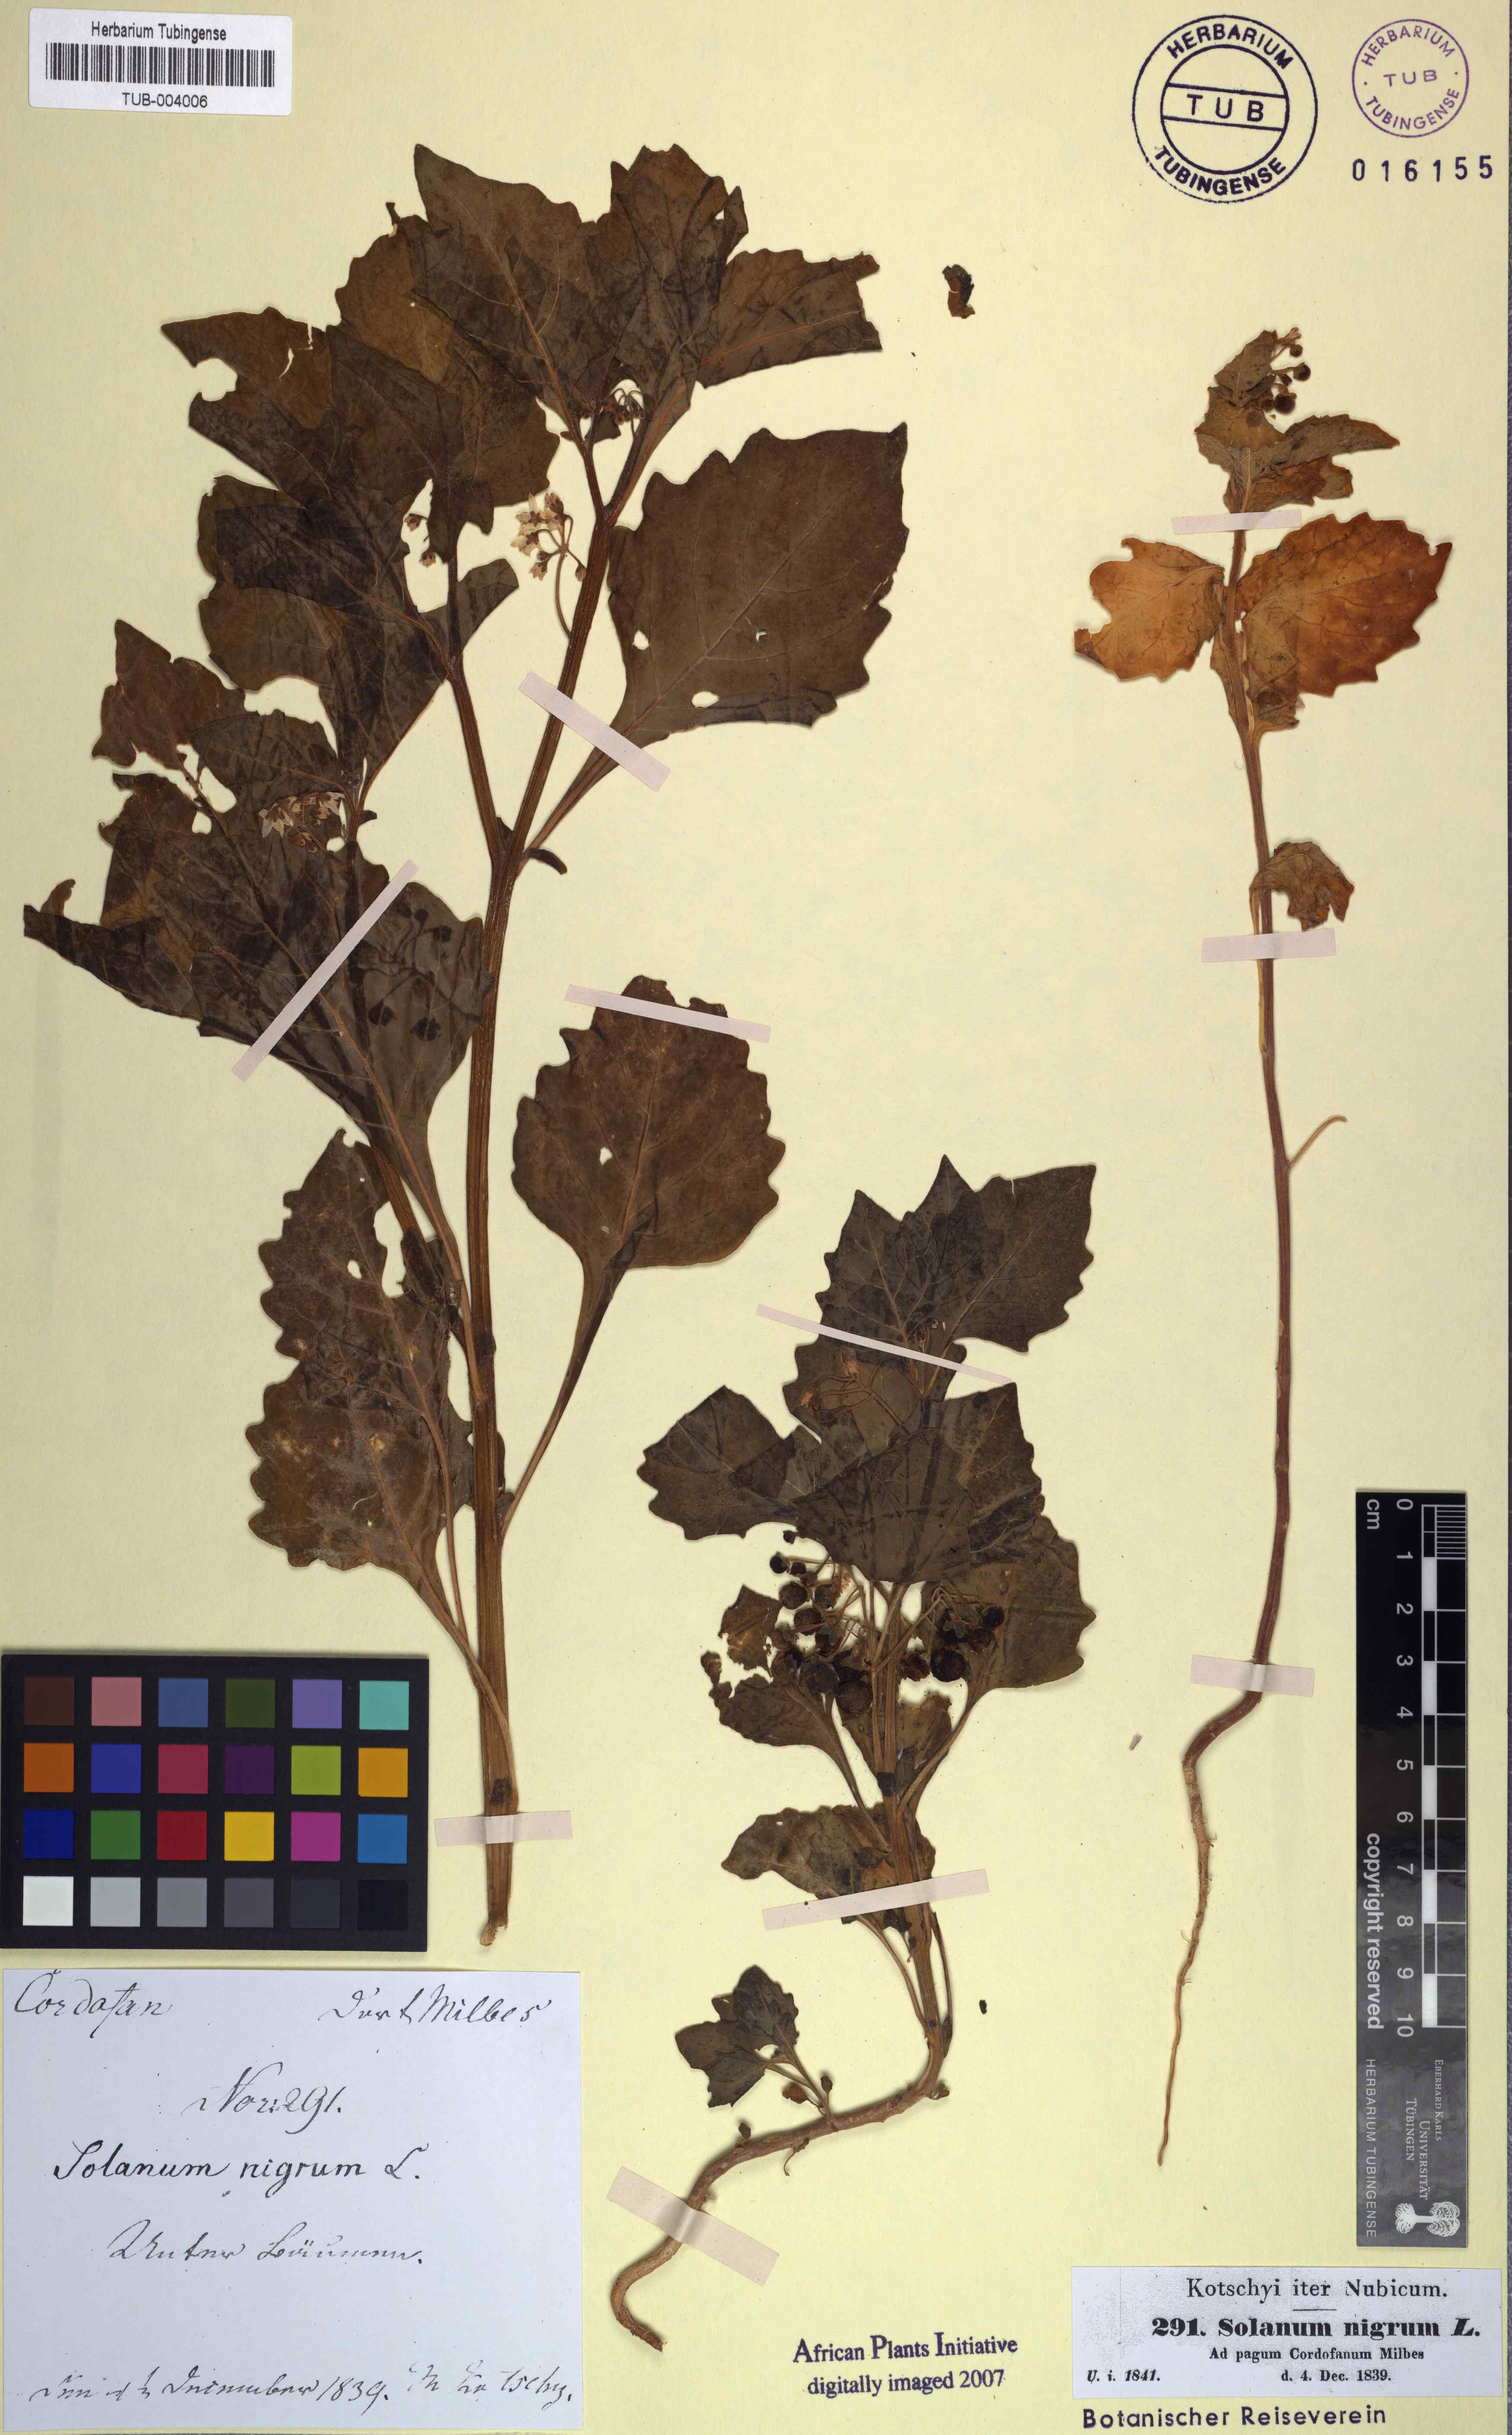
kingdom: Plantae
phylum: Tracheophyta
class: Magnoliopsida
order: Solanales
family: Solanaceae
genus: Solanum
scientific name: Solanum nigrum
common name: Black nightshade
